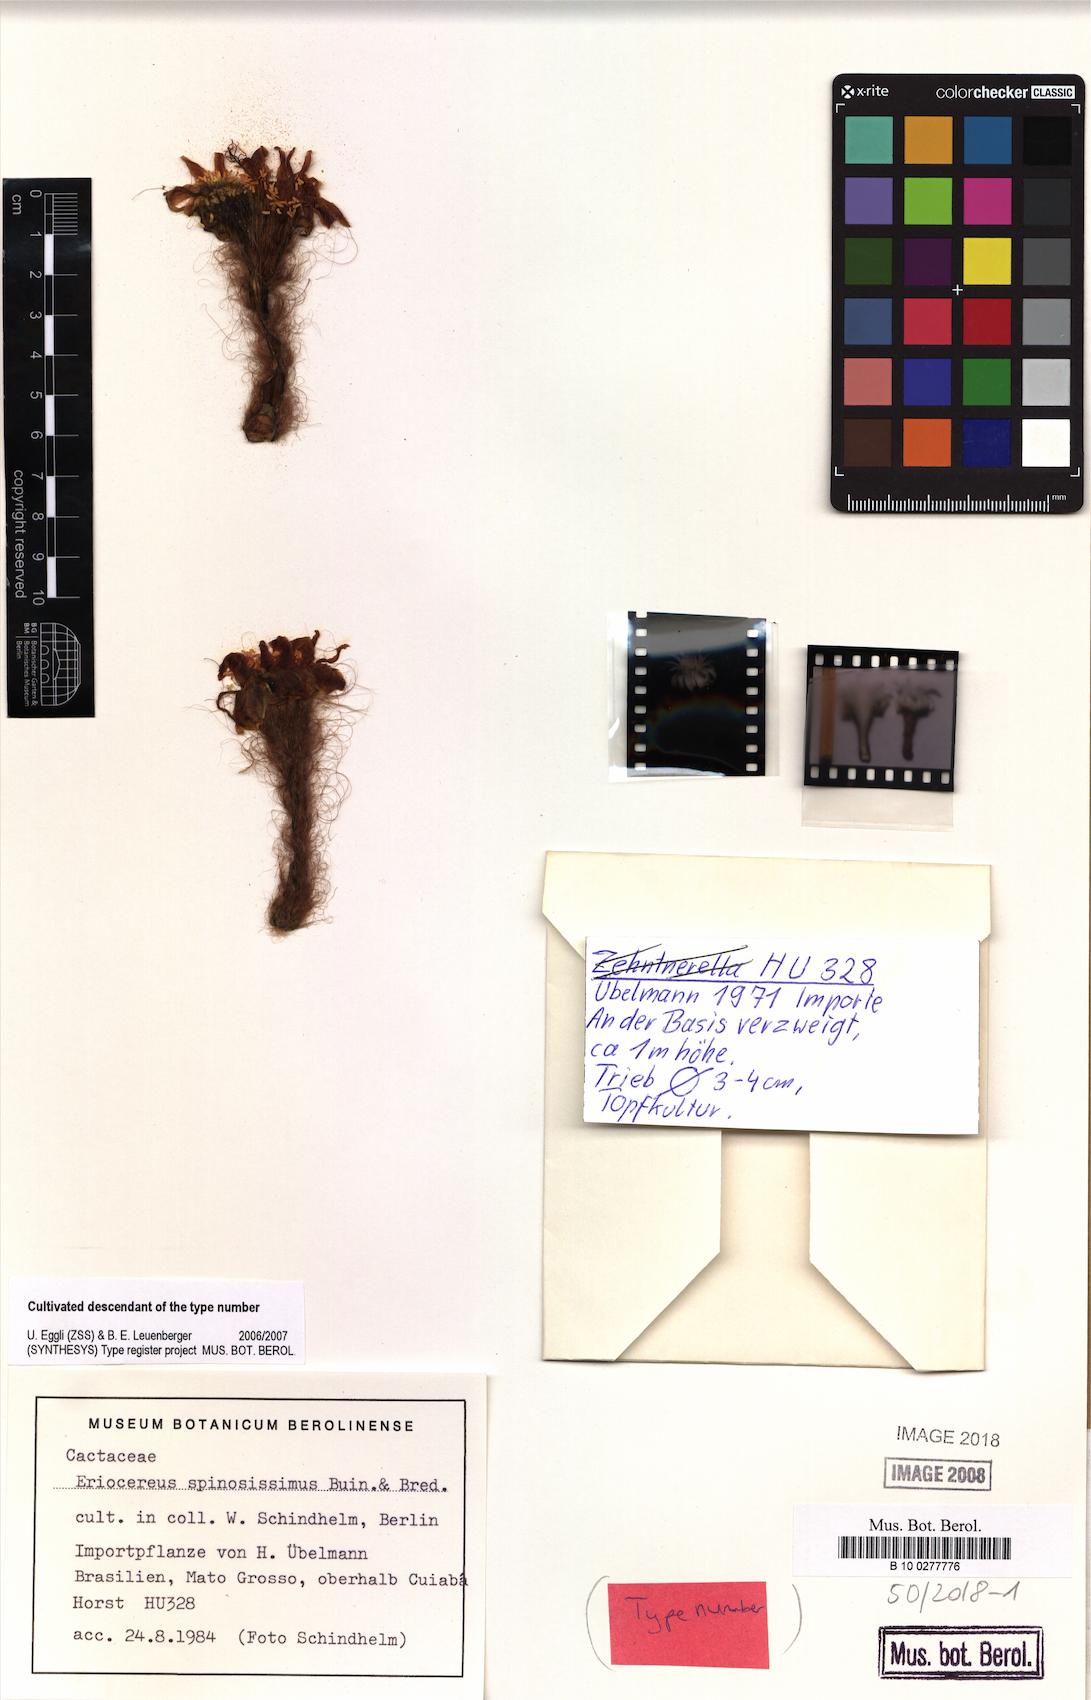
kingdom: Plantae
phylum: Tracheophyta
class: Magnoliopsida
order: Caryophyllales
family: Cactaceae
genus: Arthrocereus
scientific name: Arthrocereus spinosissimus
